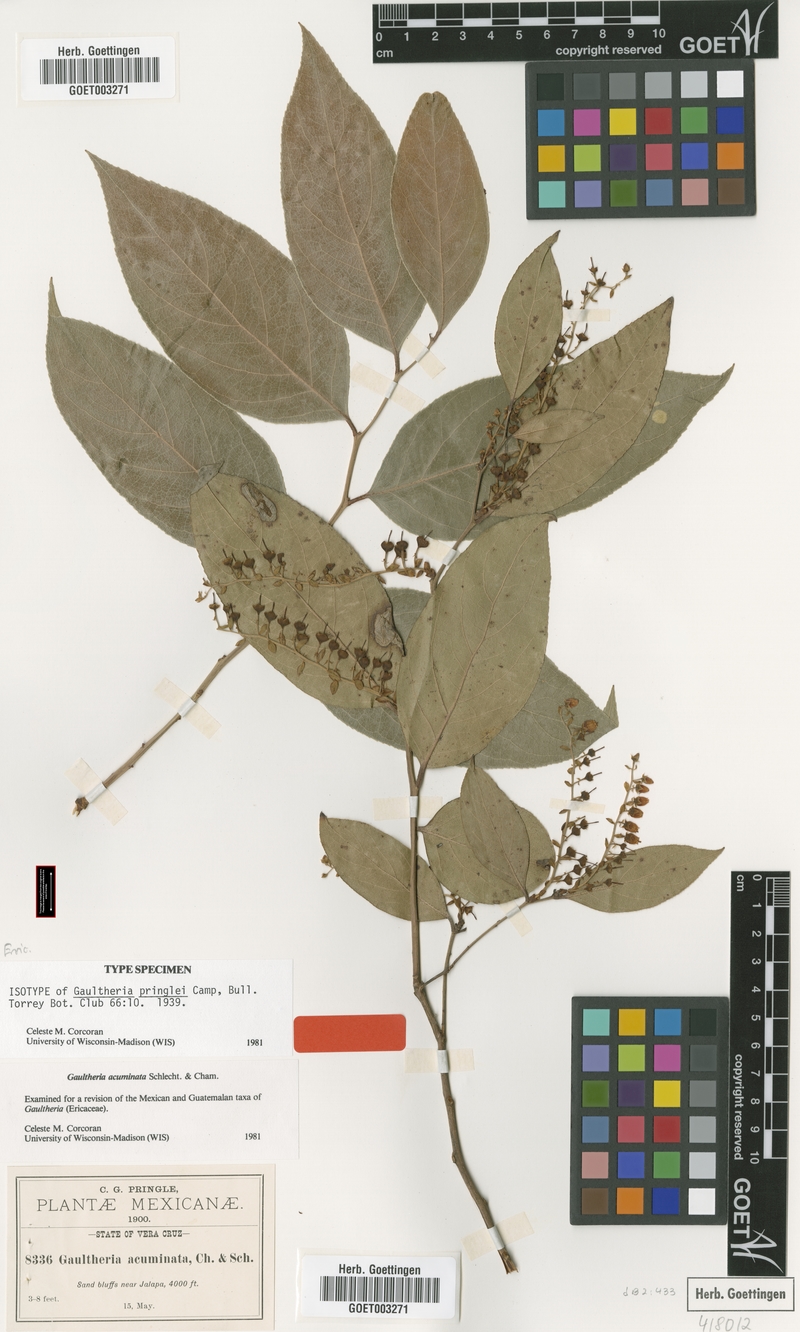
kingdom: Plantae
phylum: Tracheophyta
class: Magnoliopsida
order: Ericales
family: Ericaceae
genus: Gaultheria
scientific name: Gaultheria acuminata
